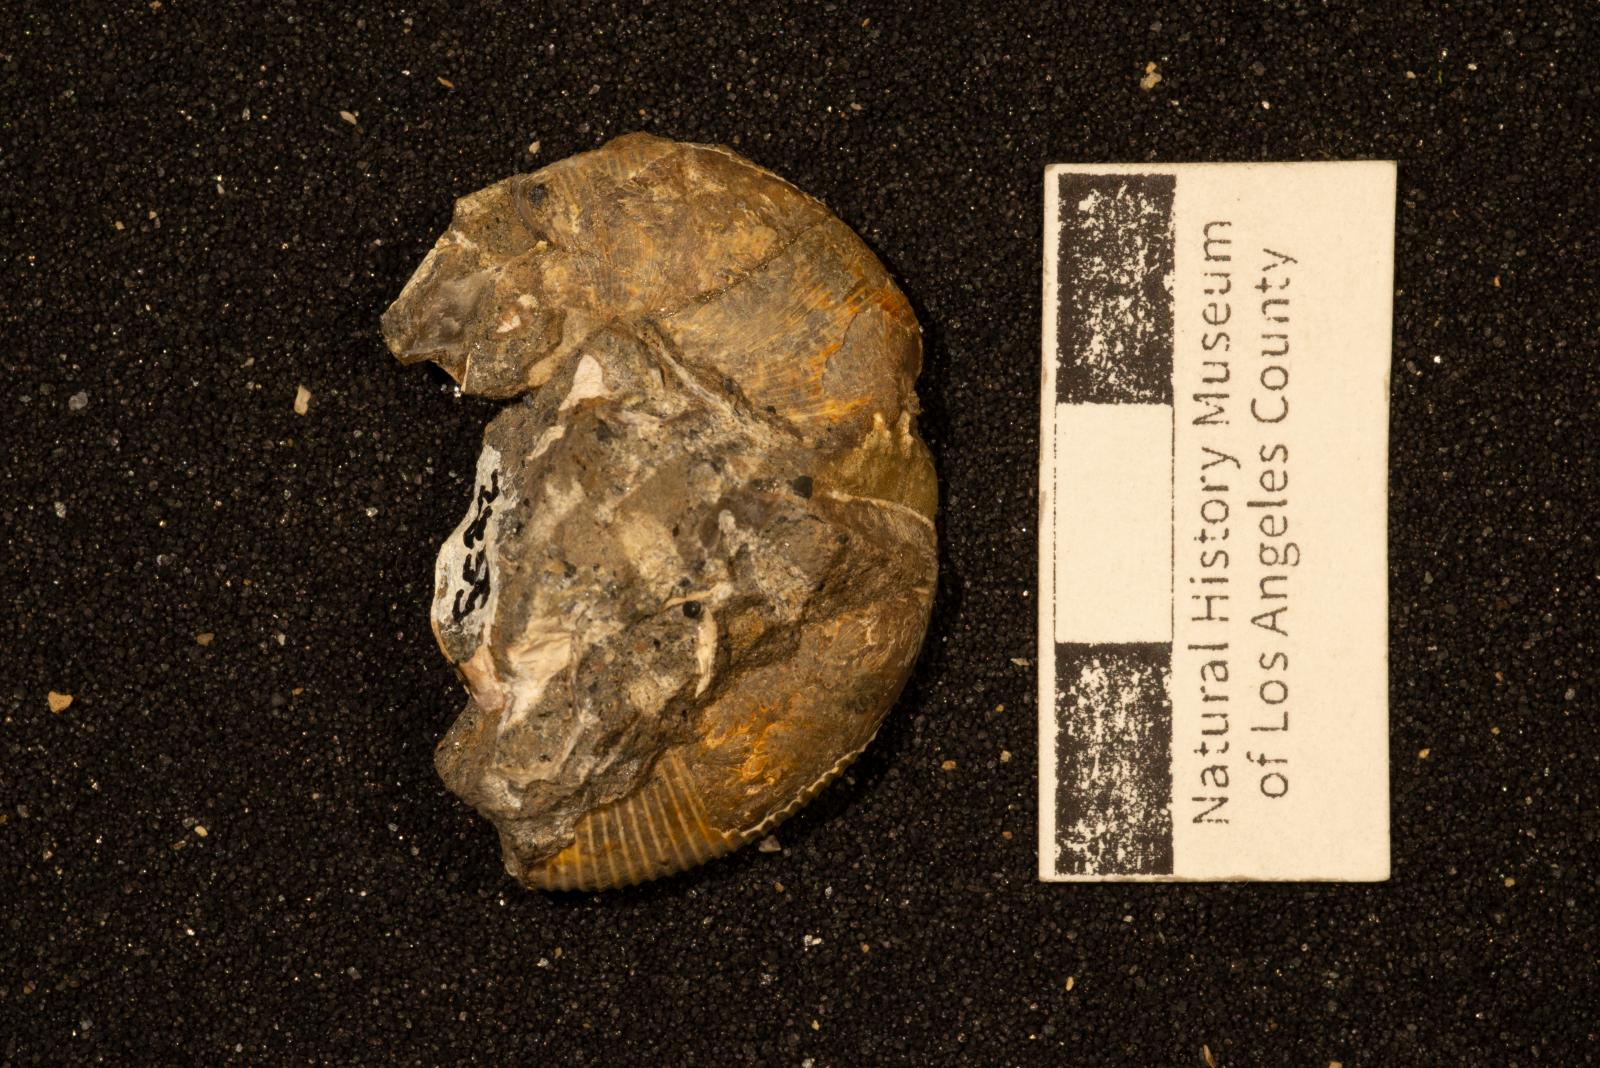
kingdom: Animalia
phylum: Mollusca
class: Cephalopoda
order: Phylloceratida
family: Phylloceratidae
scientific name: Phylloceratidae
